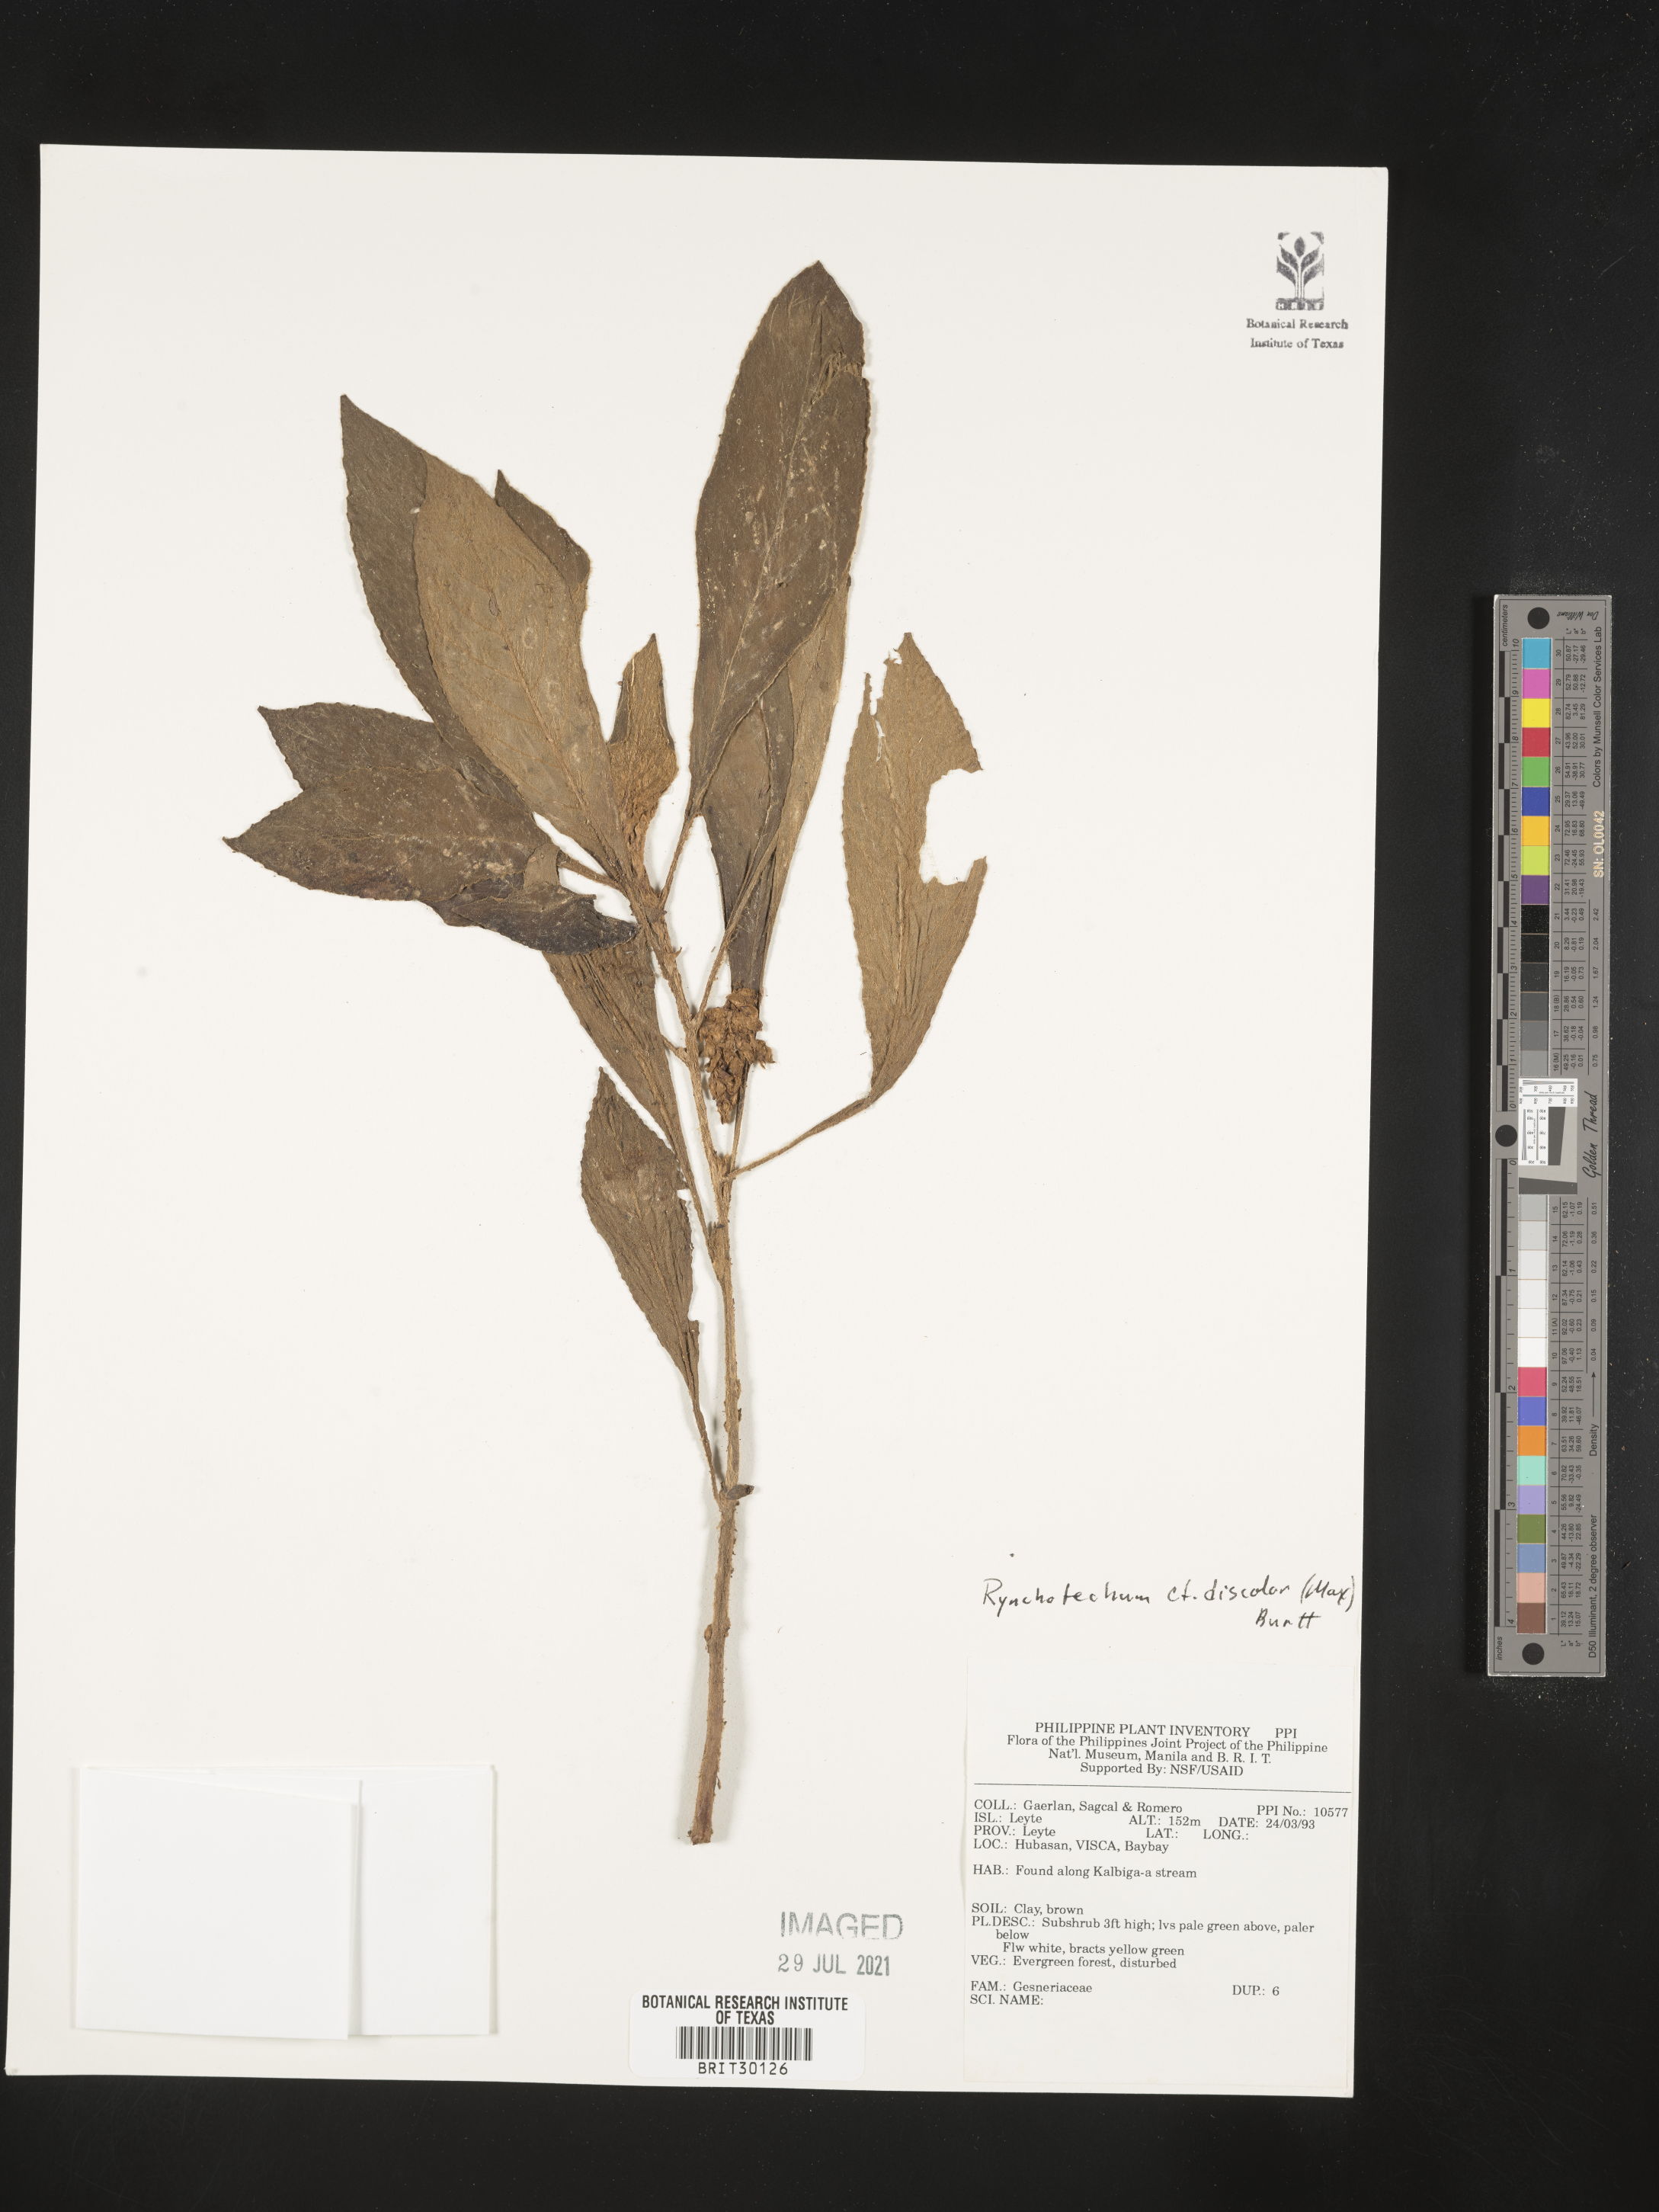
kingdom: Plantae
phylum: Tracheophyta
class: Magnoliopsida
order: Lamiales
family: Gesneriaceae
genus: Rhynchotechum
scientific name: Rhynchotechum discolor
